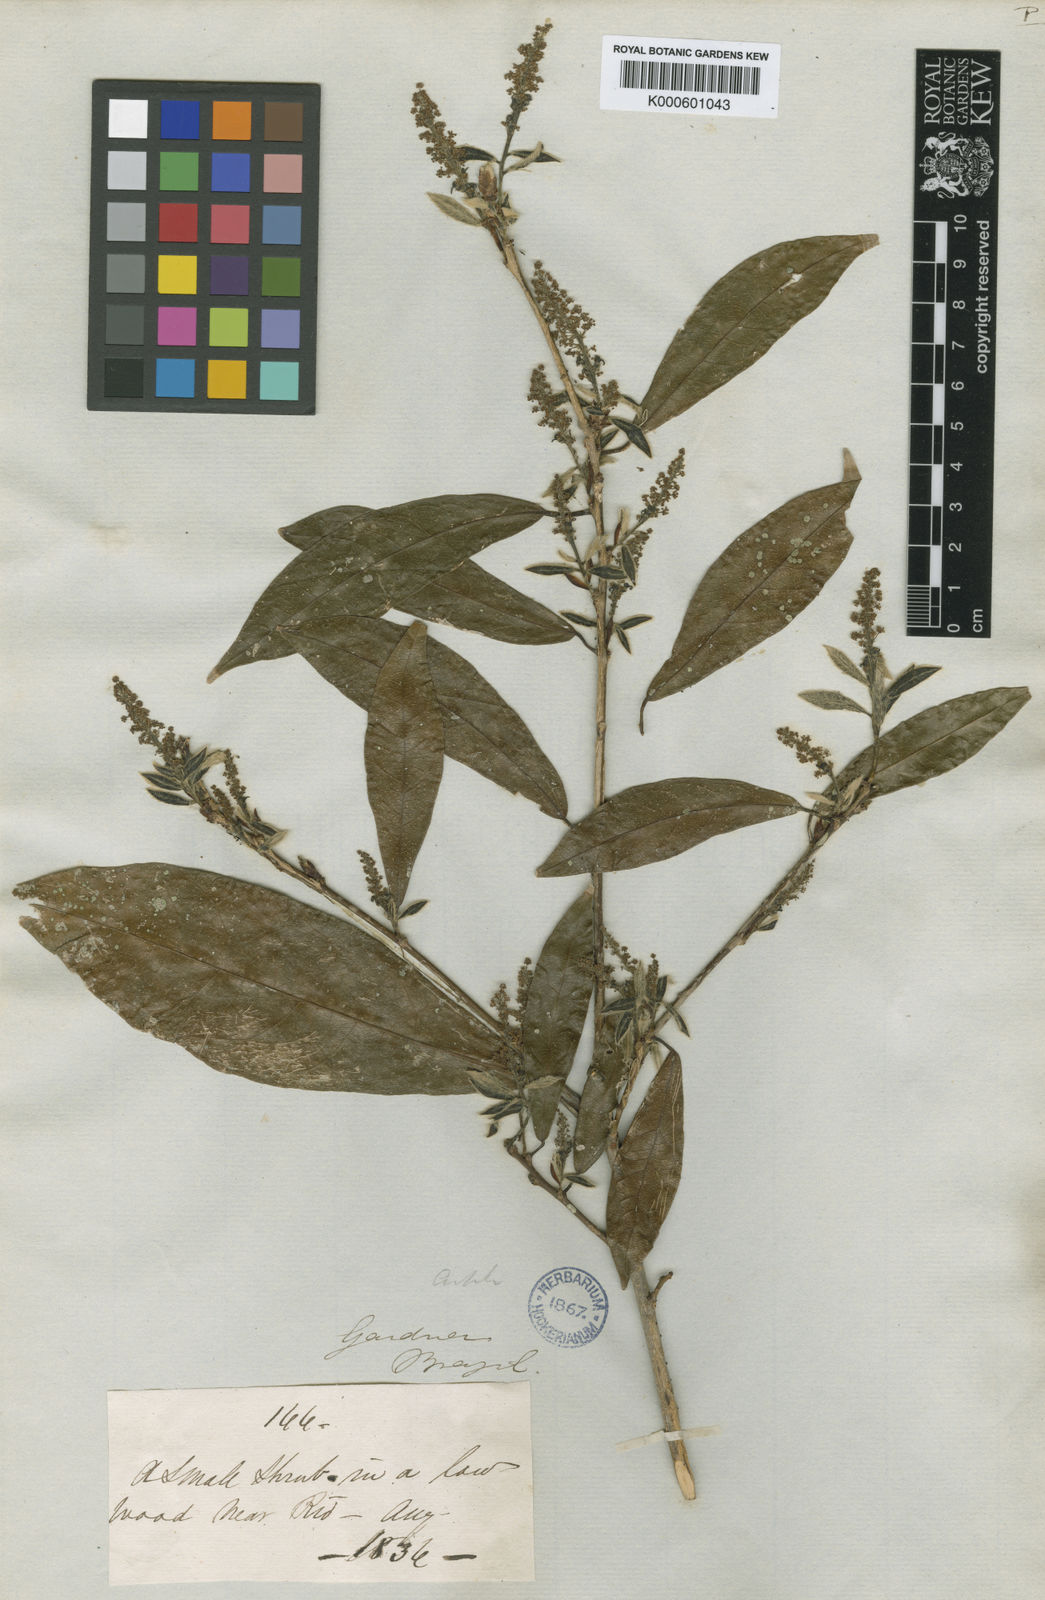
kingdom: Plantae
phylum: Tracheophyta
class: Magnoliopsida
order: Malpighiales
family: Euphorbiaceae
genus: Actinostemon
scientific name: Actinostemon
